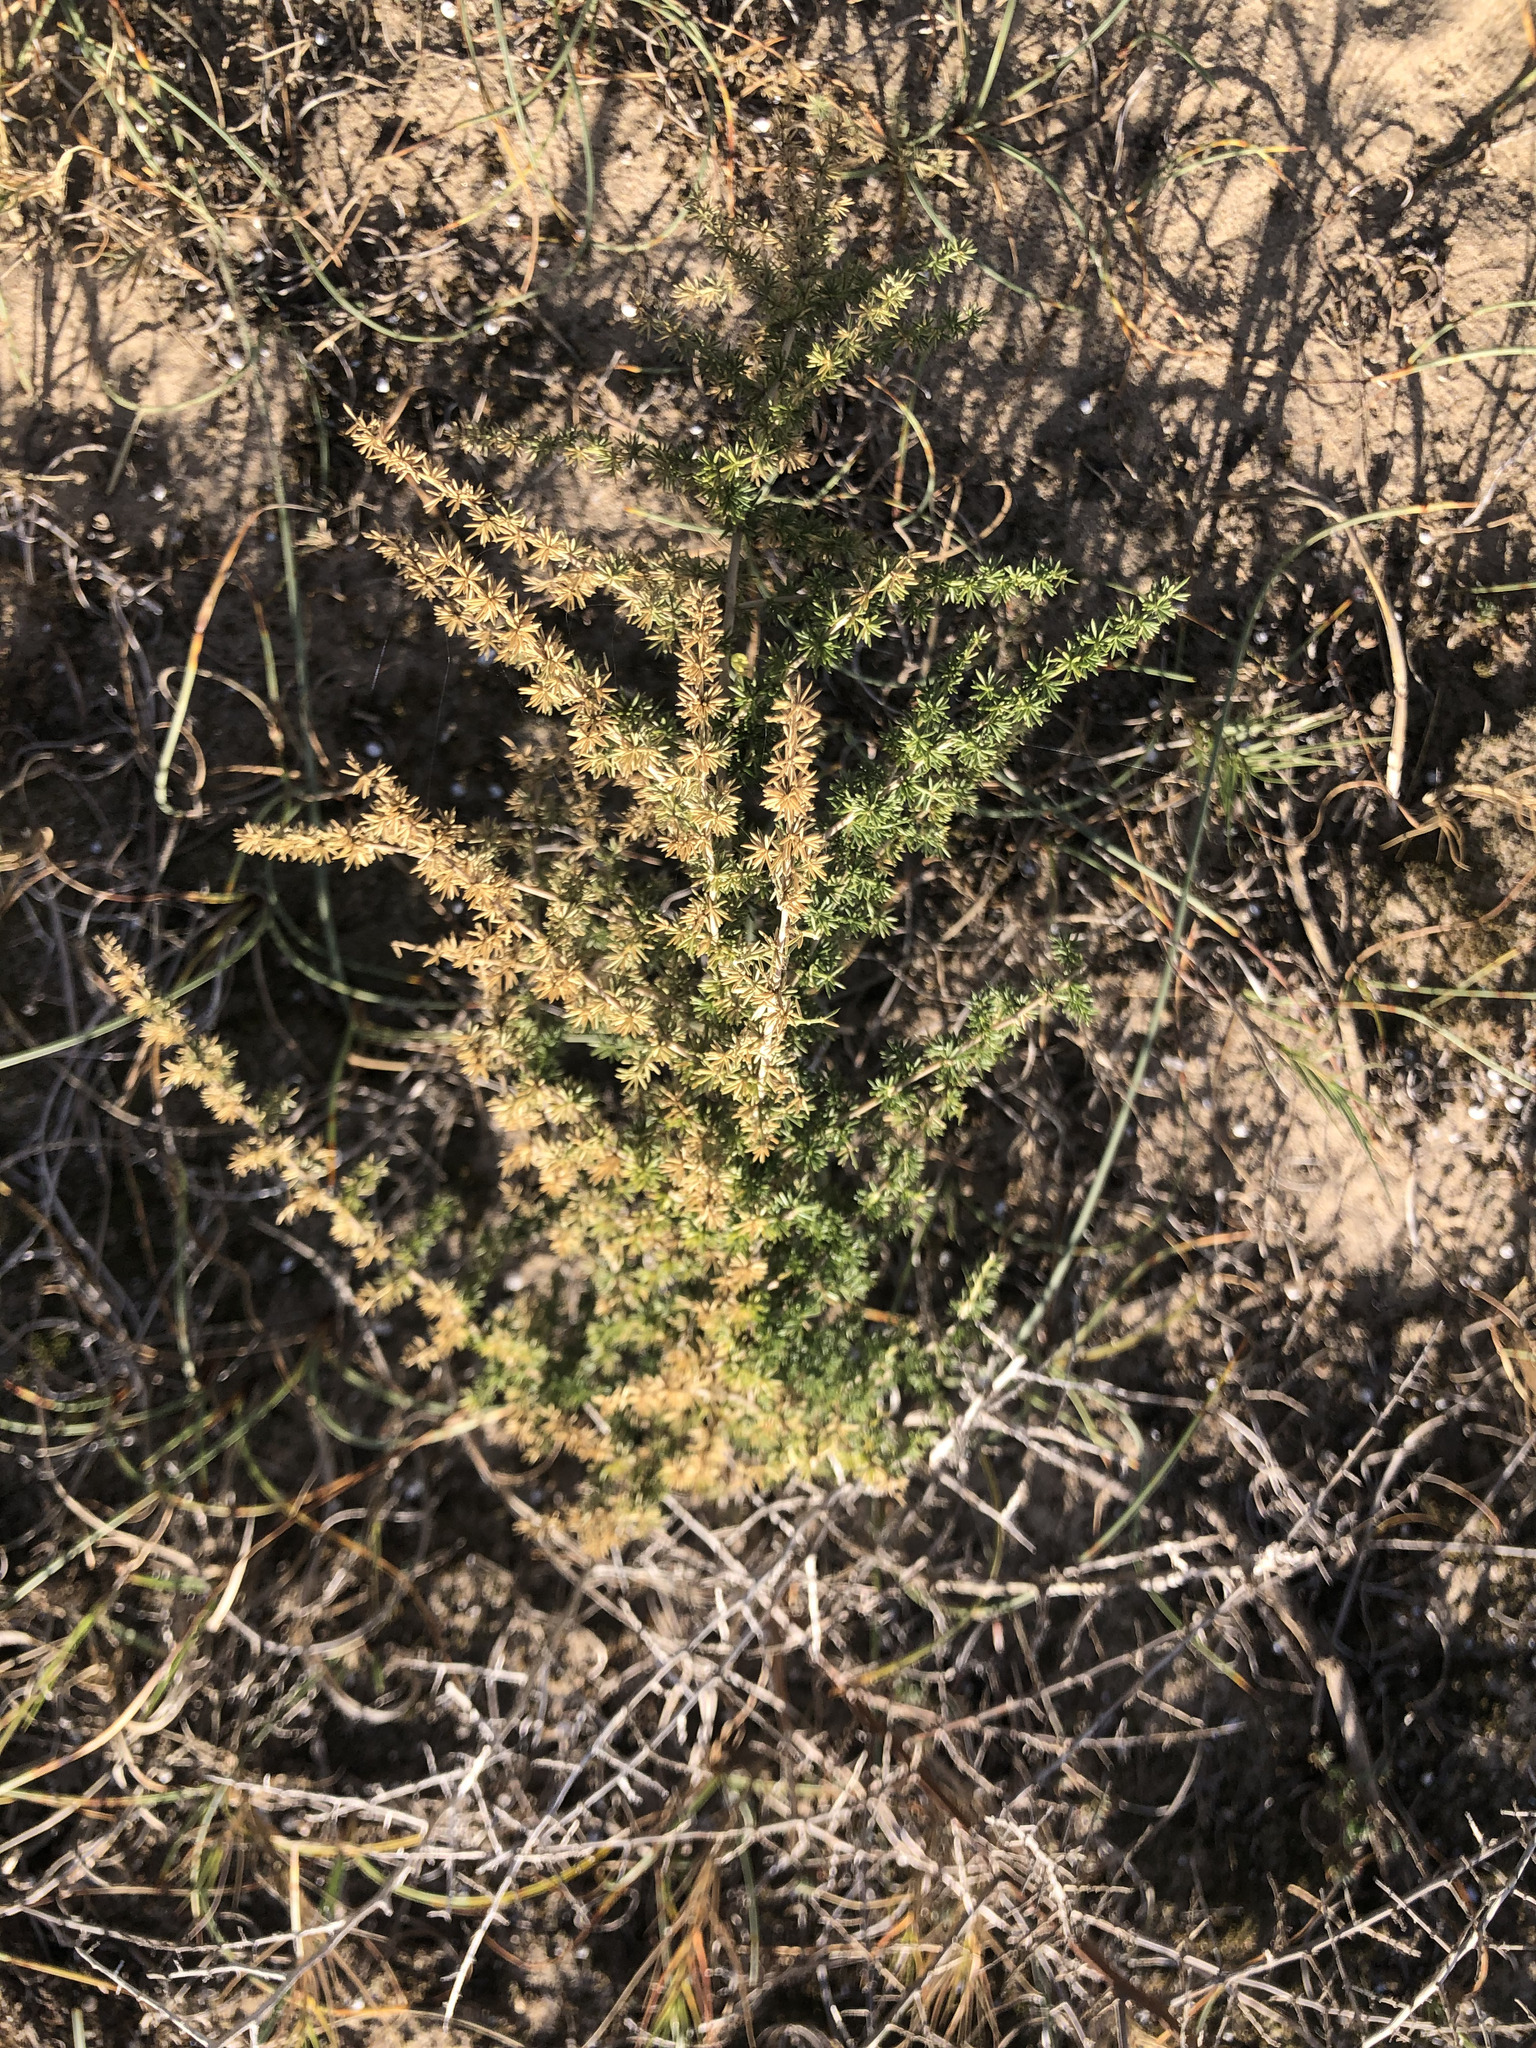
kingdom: Plantae
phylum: Tracheophyta
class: Liliopsida
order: Asparagales
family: Asparagaceae
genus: Asparagus
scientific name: Asparagus acutifolius
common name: Wild asparagus
